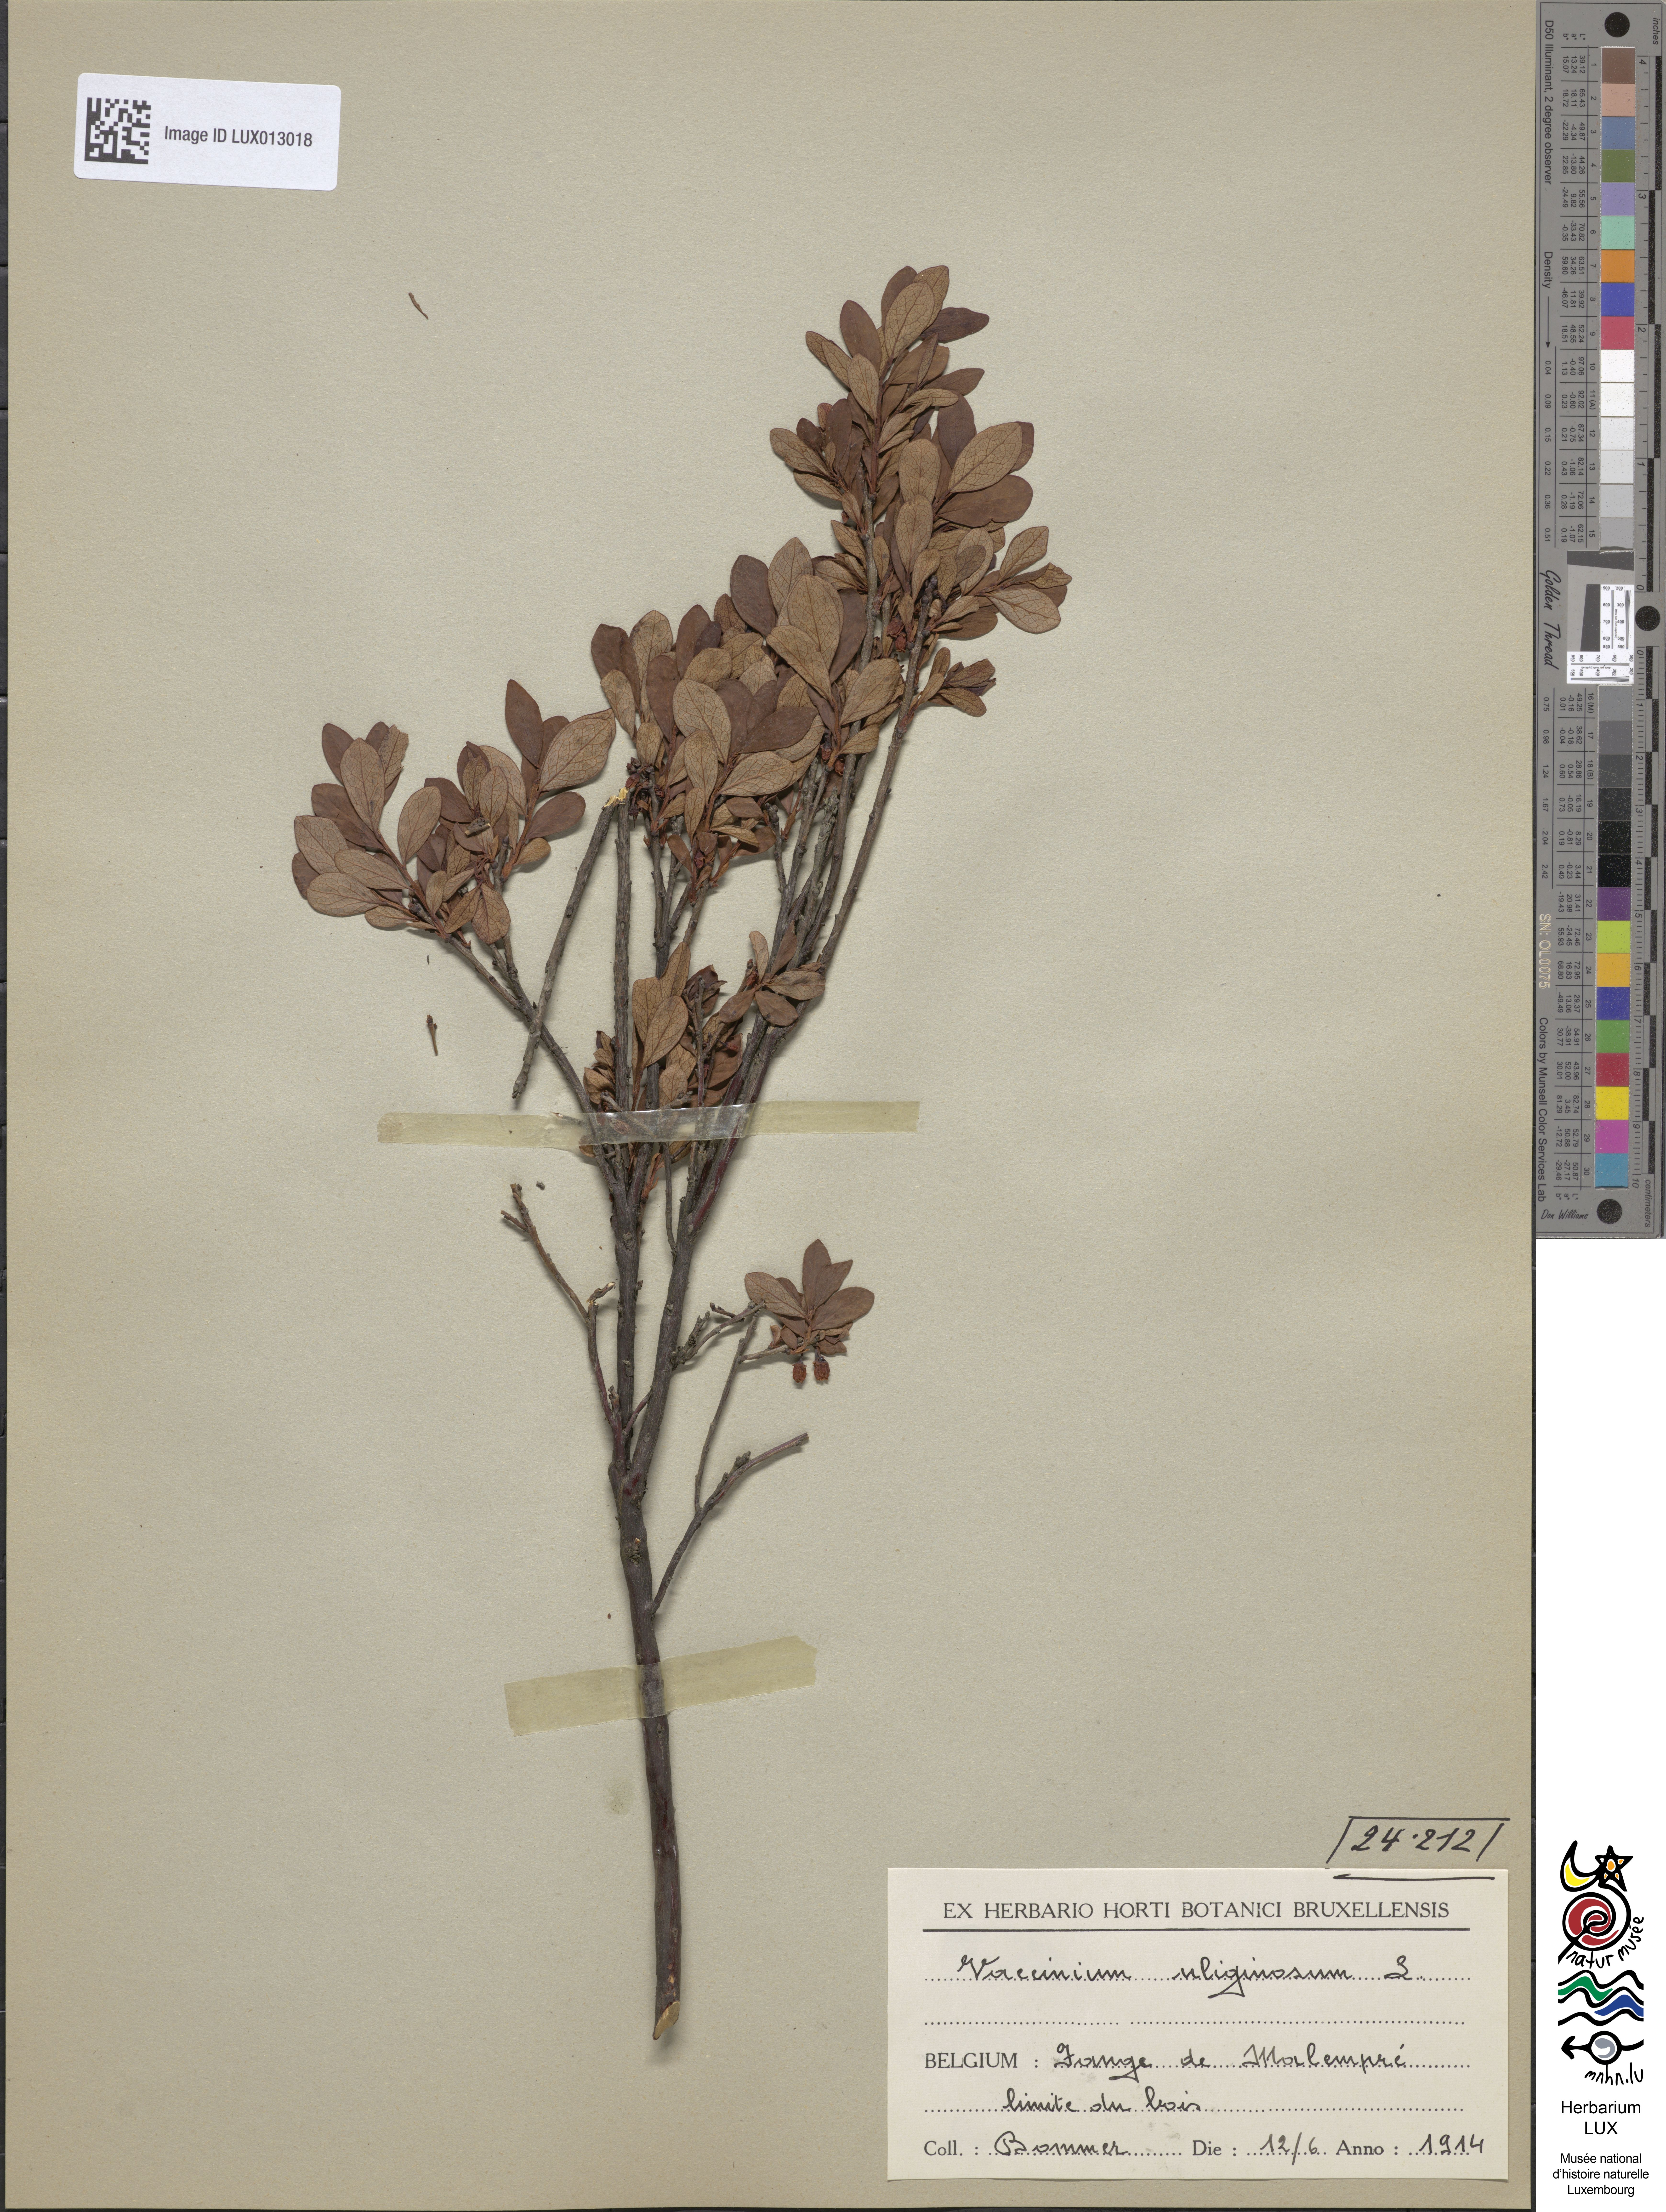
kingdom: Plantae
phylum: Tracheophyta
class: Magnoliopsida
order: Ericales
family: Ericaceae
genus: Vaccinium
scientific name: Vaccinium uliginosum
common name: Bog bilberry
